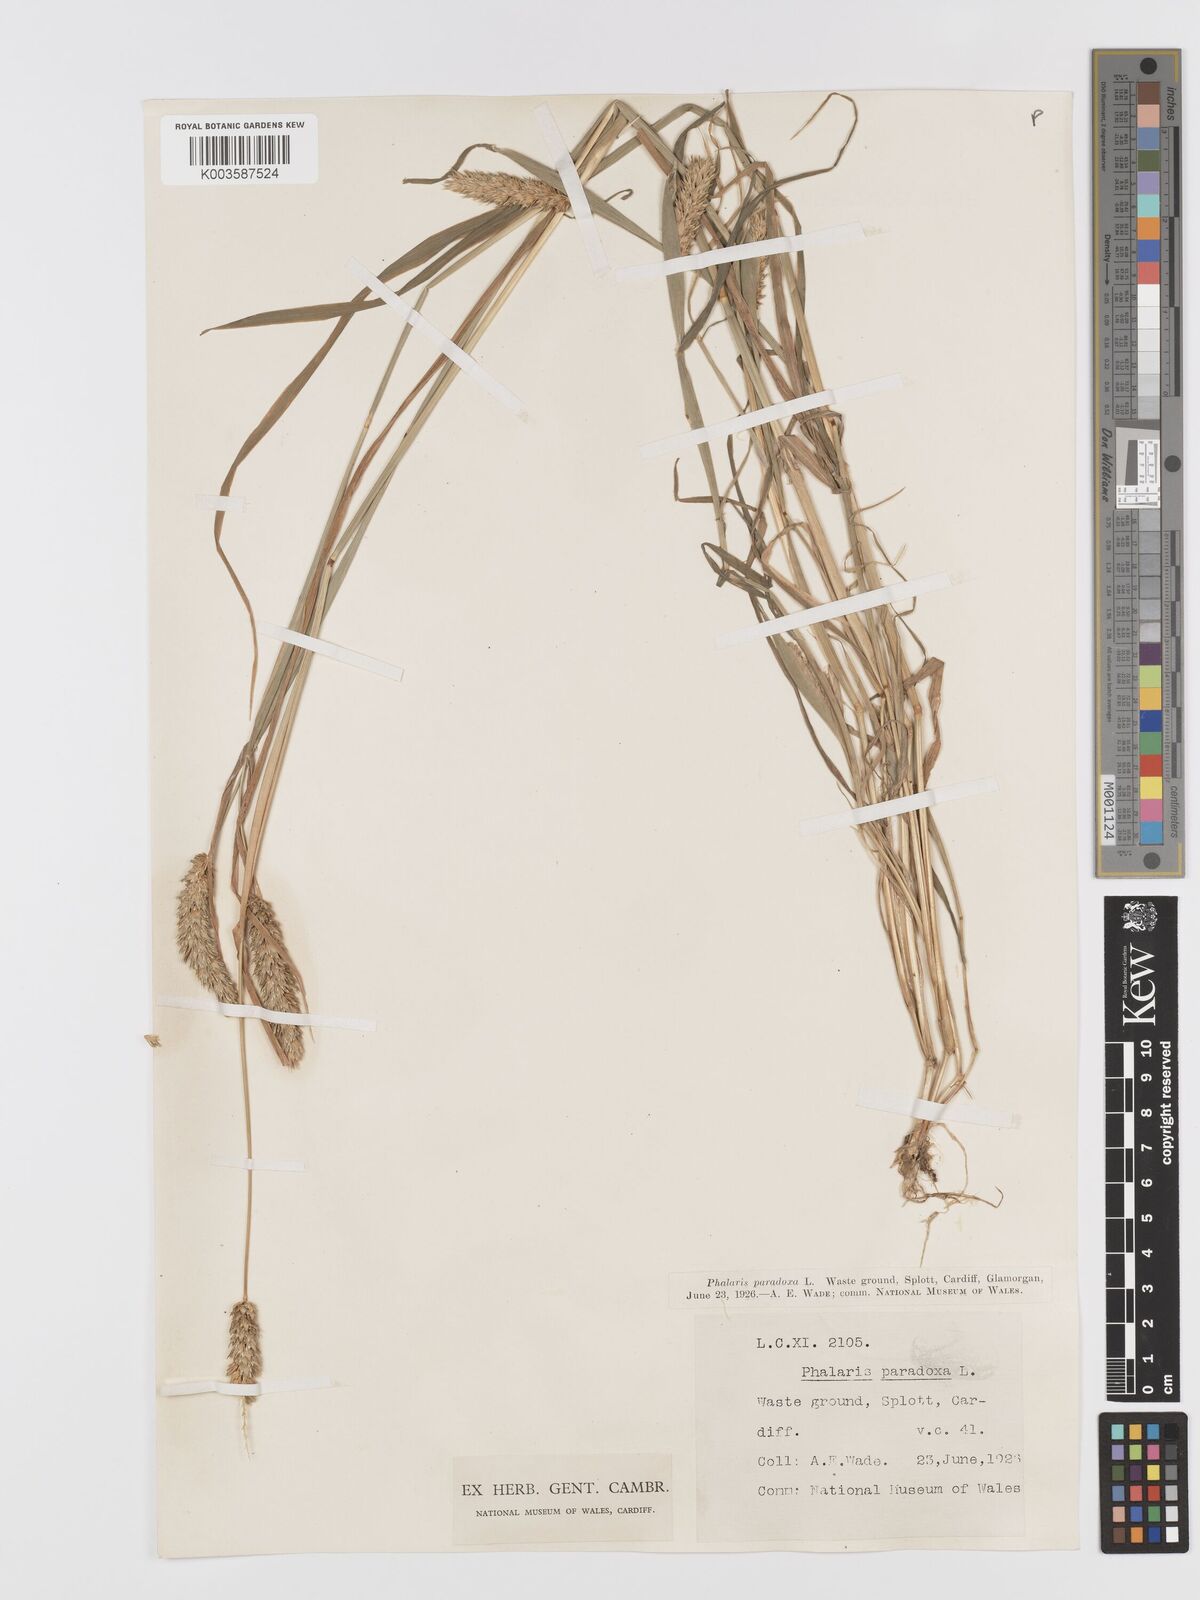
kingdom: Plantae
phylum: Tracheophyta
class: Liliopsida
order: Poales
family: Poaceae
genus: Phalaris
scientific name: Phalaris paradoxa
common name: Awned canary-grass
